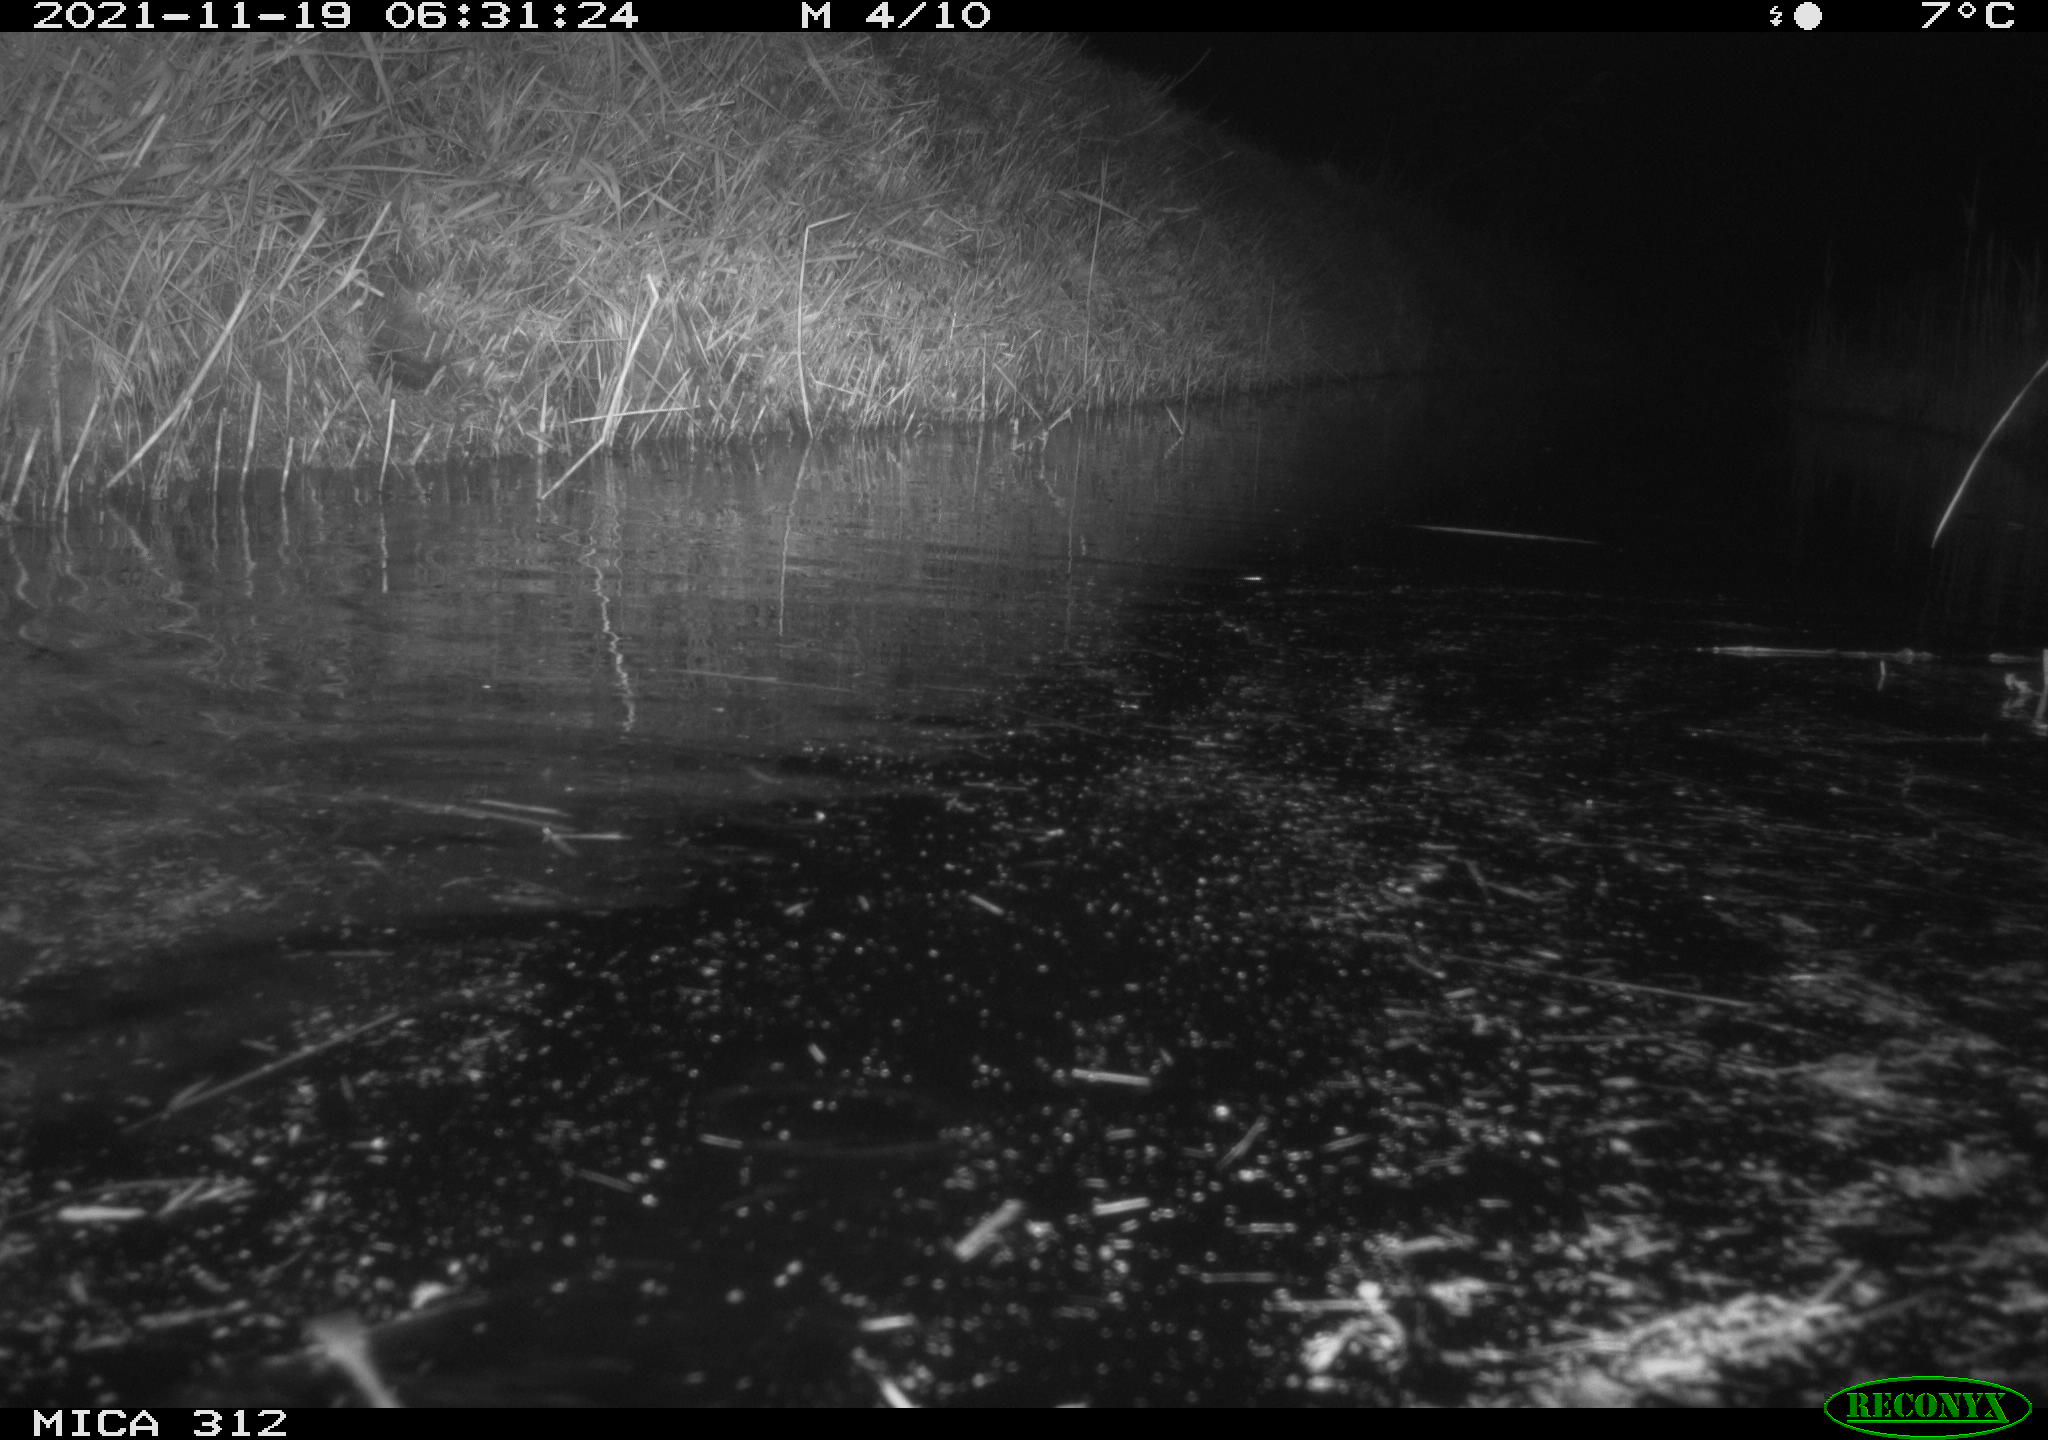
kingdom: Animalia
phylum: Chordata
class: Mammalia
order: Rodentia
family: Muridae
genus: Rattus
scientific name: Rattus norvegicus
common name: Brown rat
